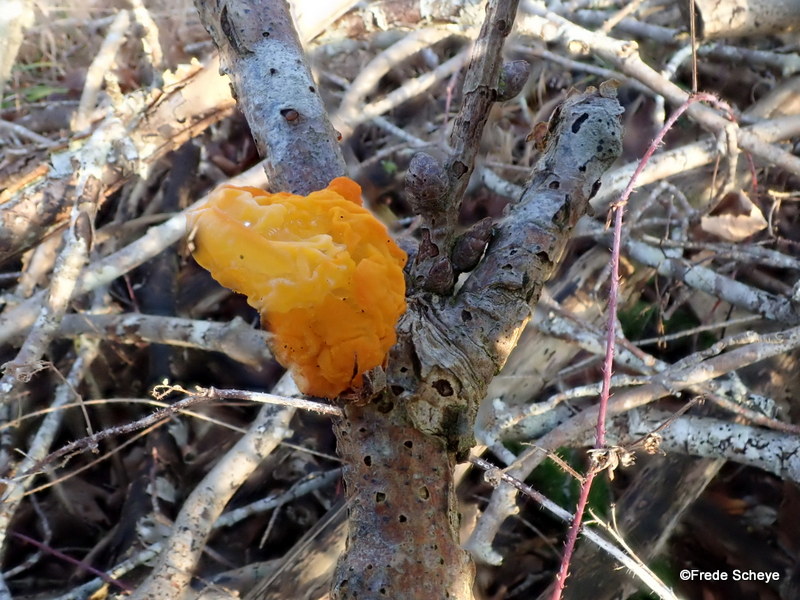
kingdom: Fungi
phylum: Basidiomycota
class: Tremellomycetes
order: Tremellales
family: Tremellaceae
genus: Tremella
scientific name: Tremella mesenterica
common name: gul bævresvamp
